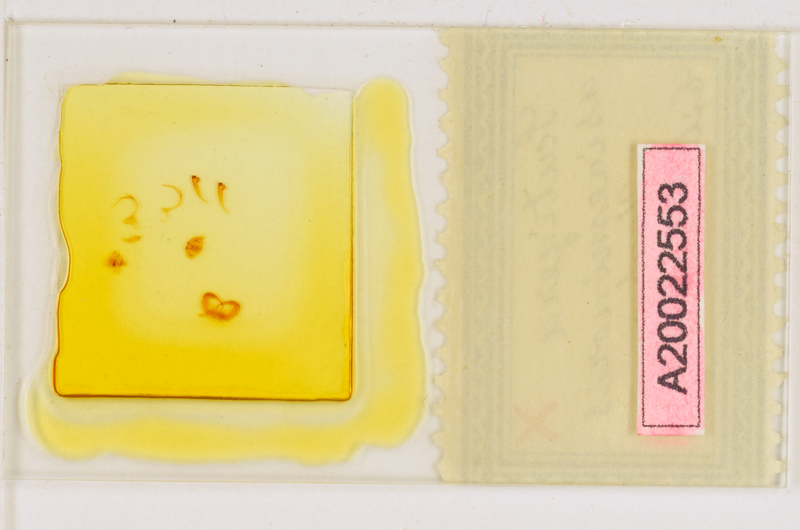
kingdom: Animalia
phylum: Arthropoda
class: Chilopoda
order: Scutigeromorpha
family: Scutigeridae
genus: Scutigera
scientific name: Scutigera coleoptrata
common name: House centipede
